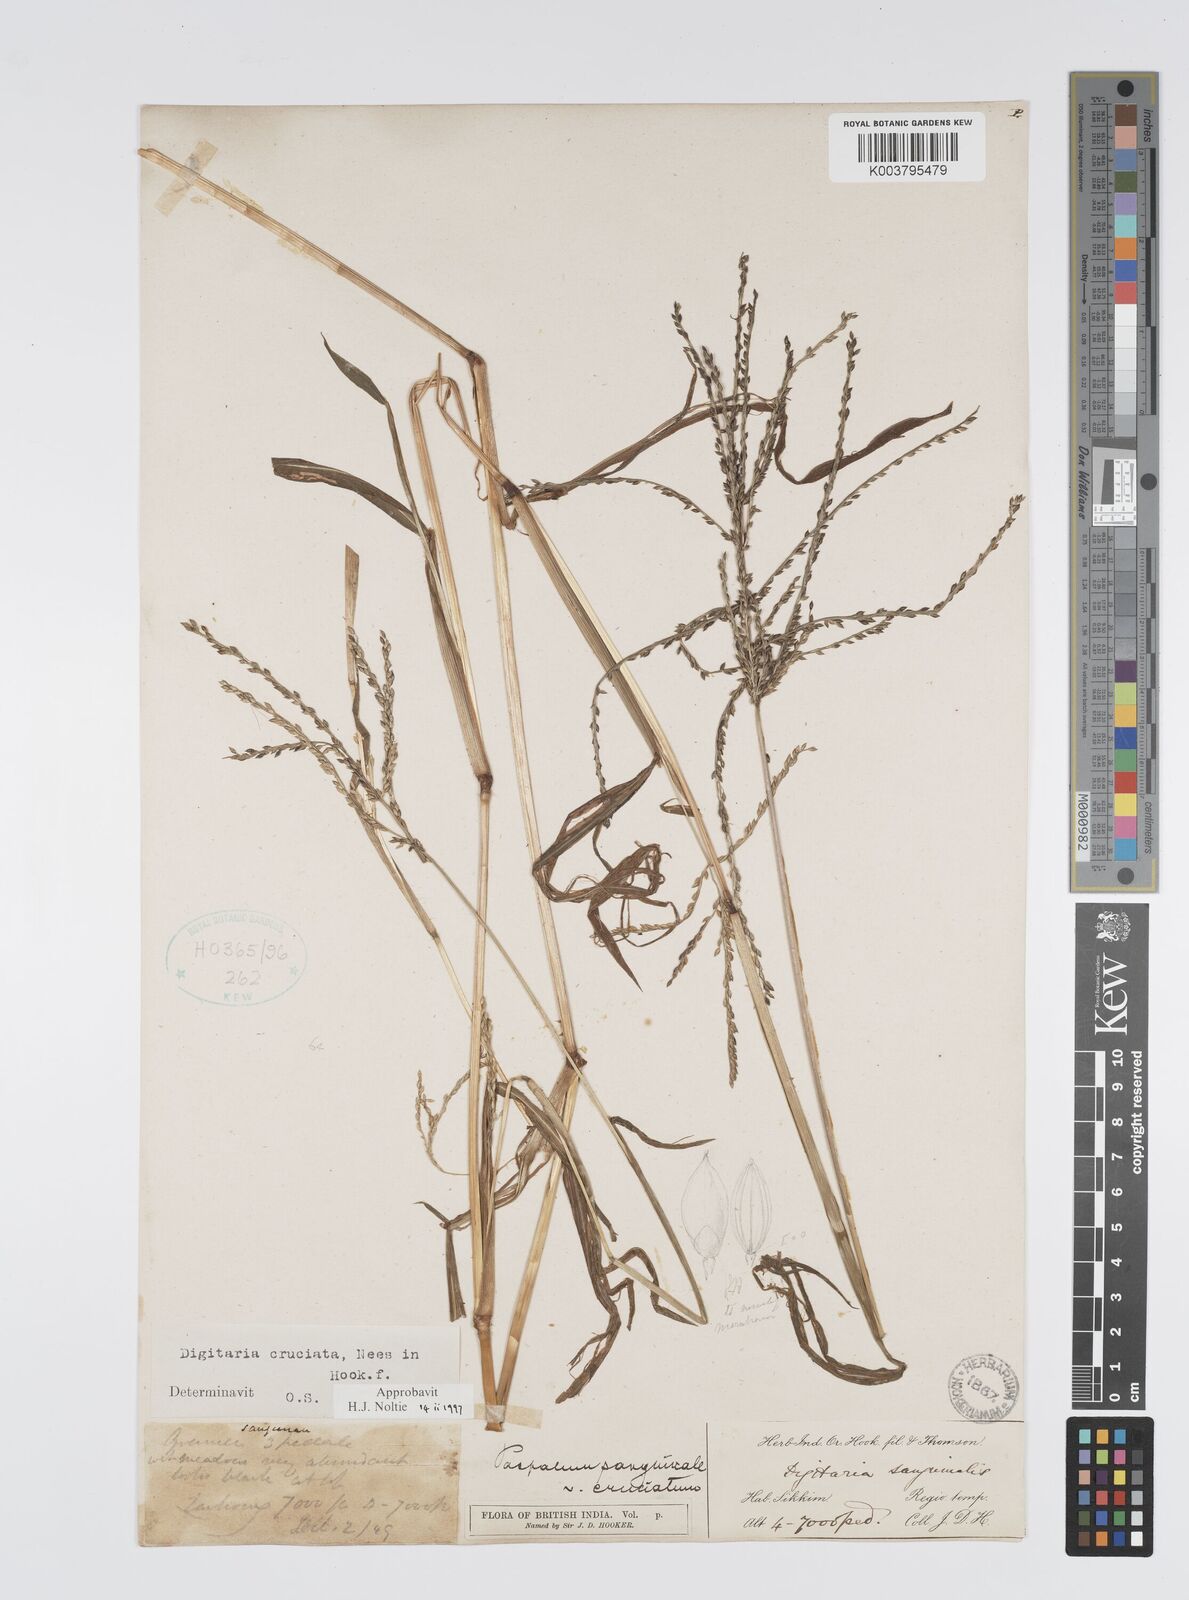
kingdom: Plantae
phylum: Tracheophyta
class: Liliopsida
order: Poales
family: Poaceae
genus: Digitaria
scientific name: Digitaria cruciata
